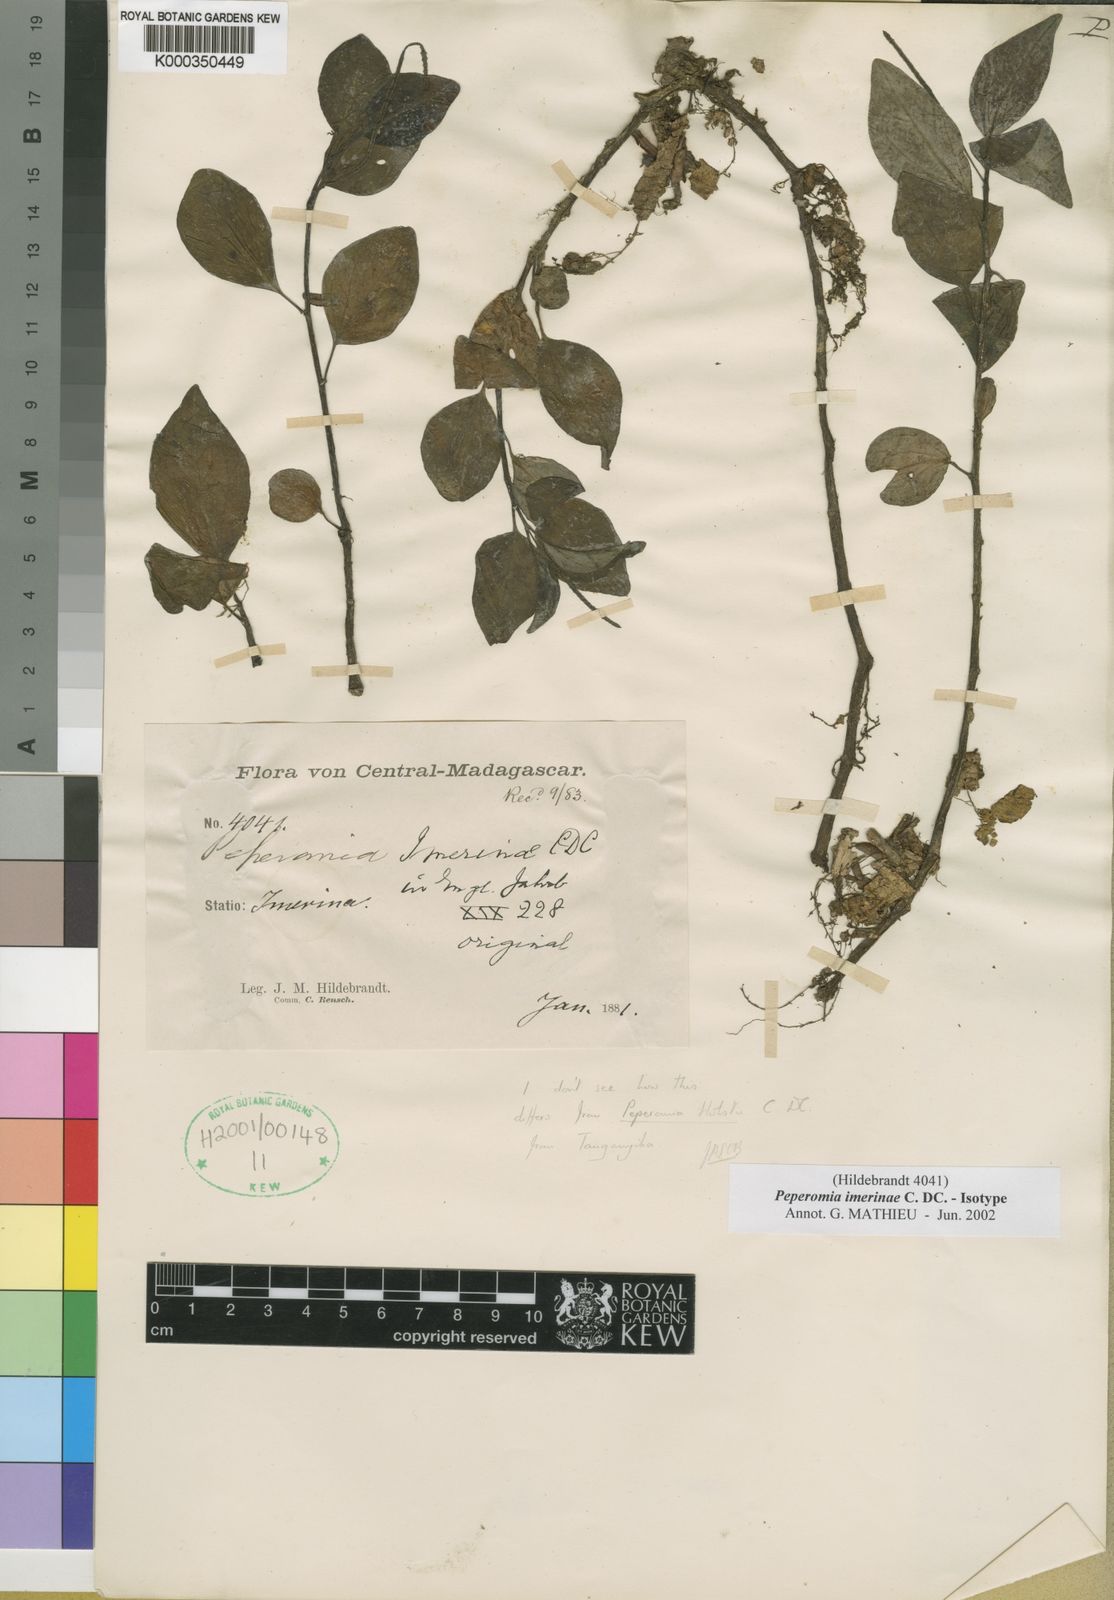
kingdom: Plantae
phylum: Tracheophyta
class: Magnoliopsida
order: Piperales
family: Piperaceae
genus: Peperomia
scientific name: Peperomia imerinae
